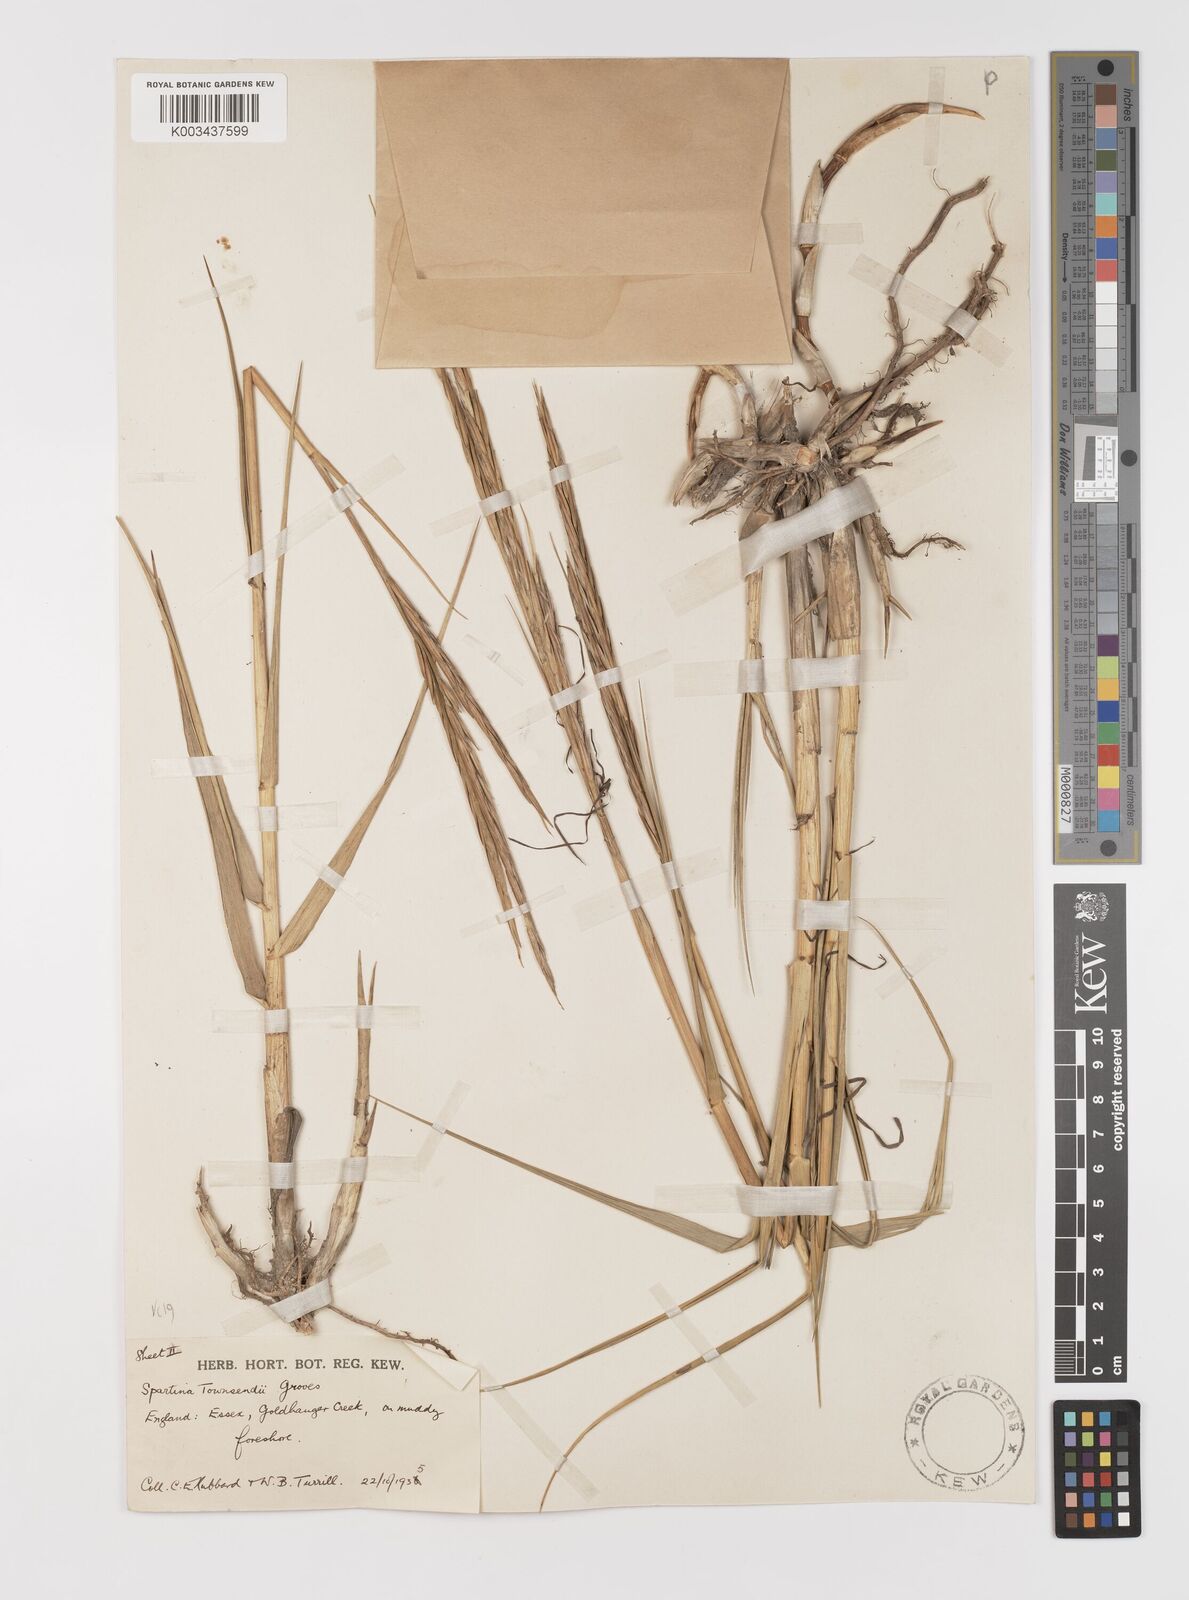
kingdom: Plantae
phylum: Tracheophyta
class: Liliopsida
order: Poales
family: Poaceae
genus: Sporobolus
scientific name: Sporobolus anglicus
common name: English cordgrass
